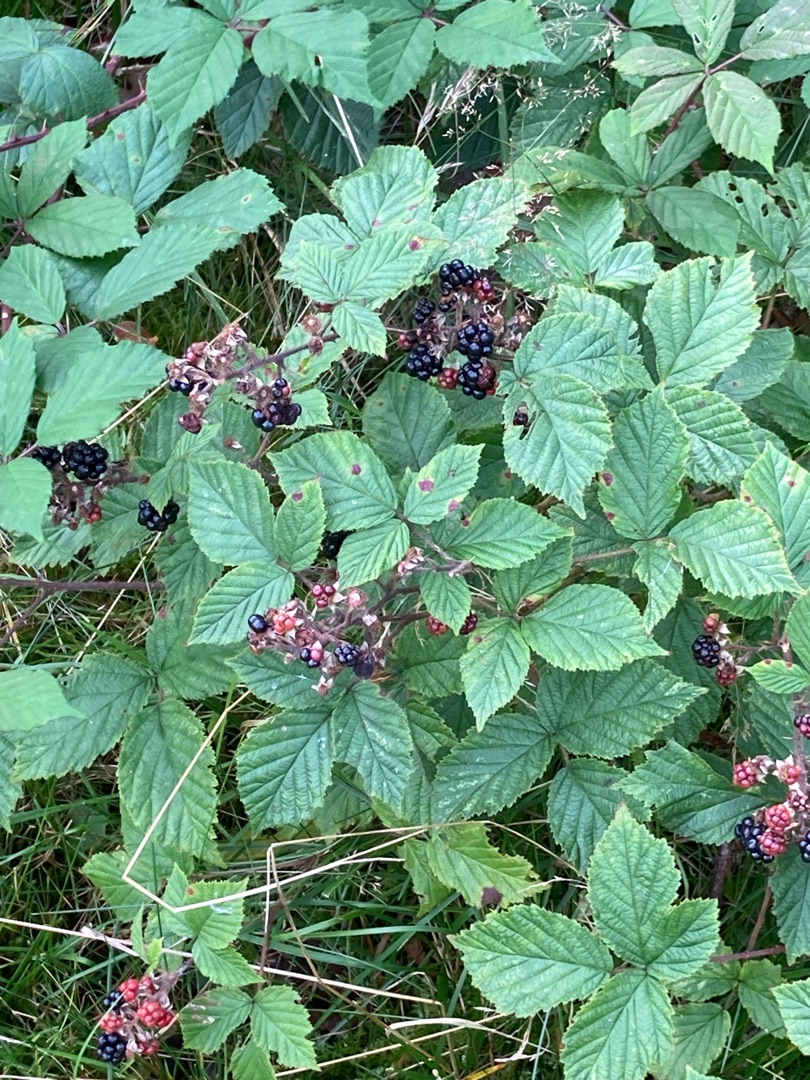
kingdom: Plantae
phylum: Tracheophyta
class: Magnoliopsida
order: Rosales
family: Rosaceae
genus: Rubus
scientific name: Rubus
